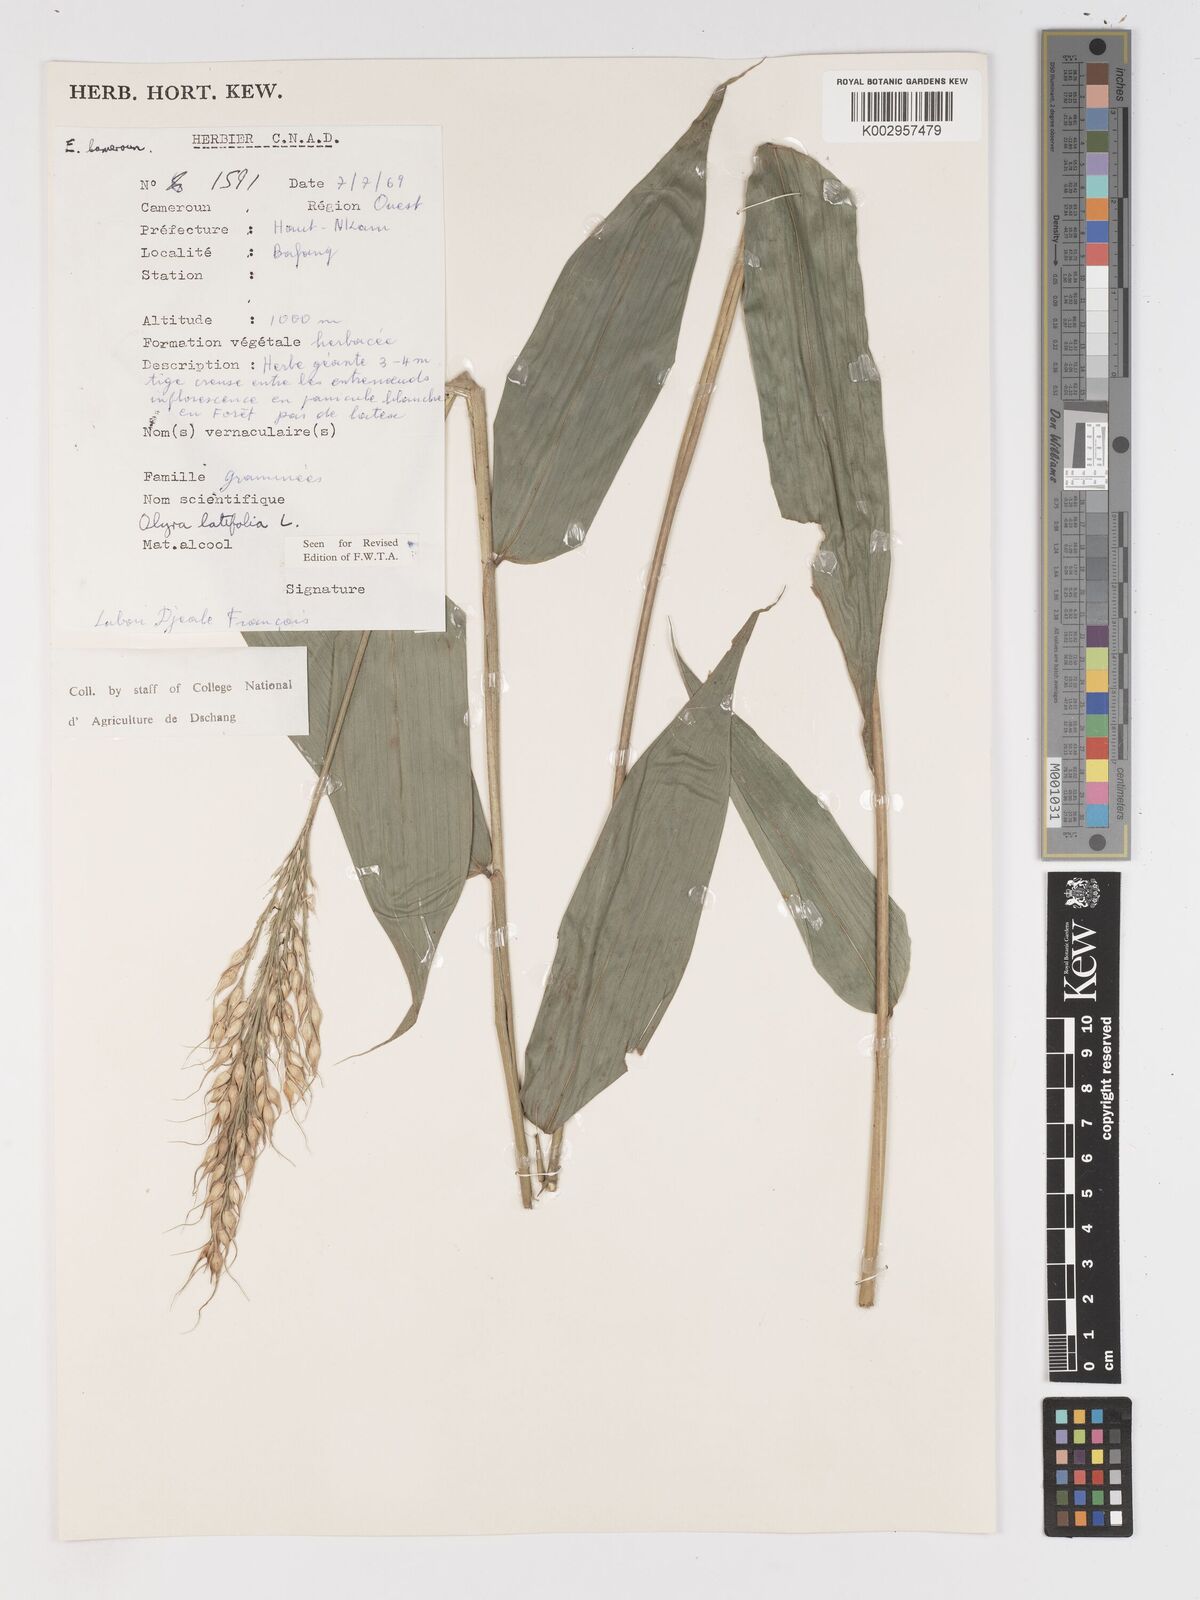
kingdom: Plantae
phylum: Tracheophyta
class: Liliopsida
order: Poales
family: Poaceae
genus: Olyra
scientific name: Olyra latifolia
